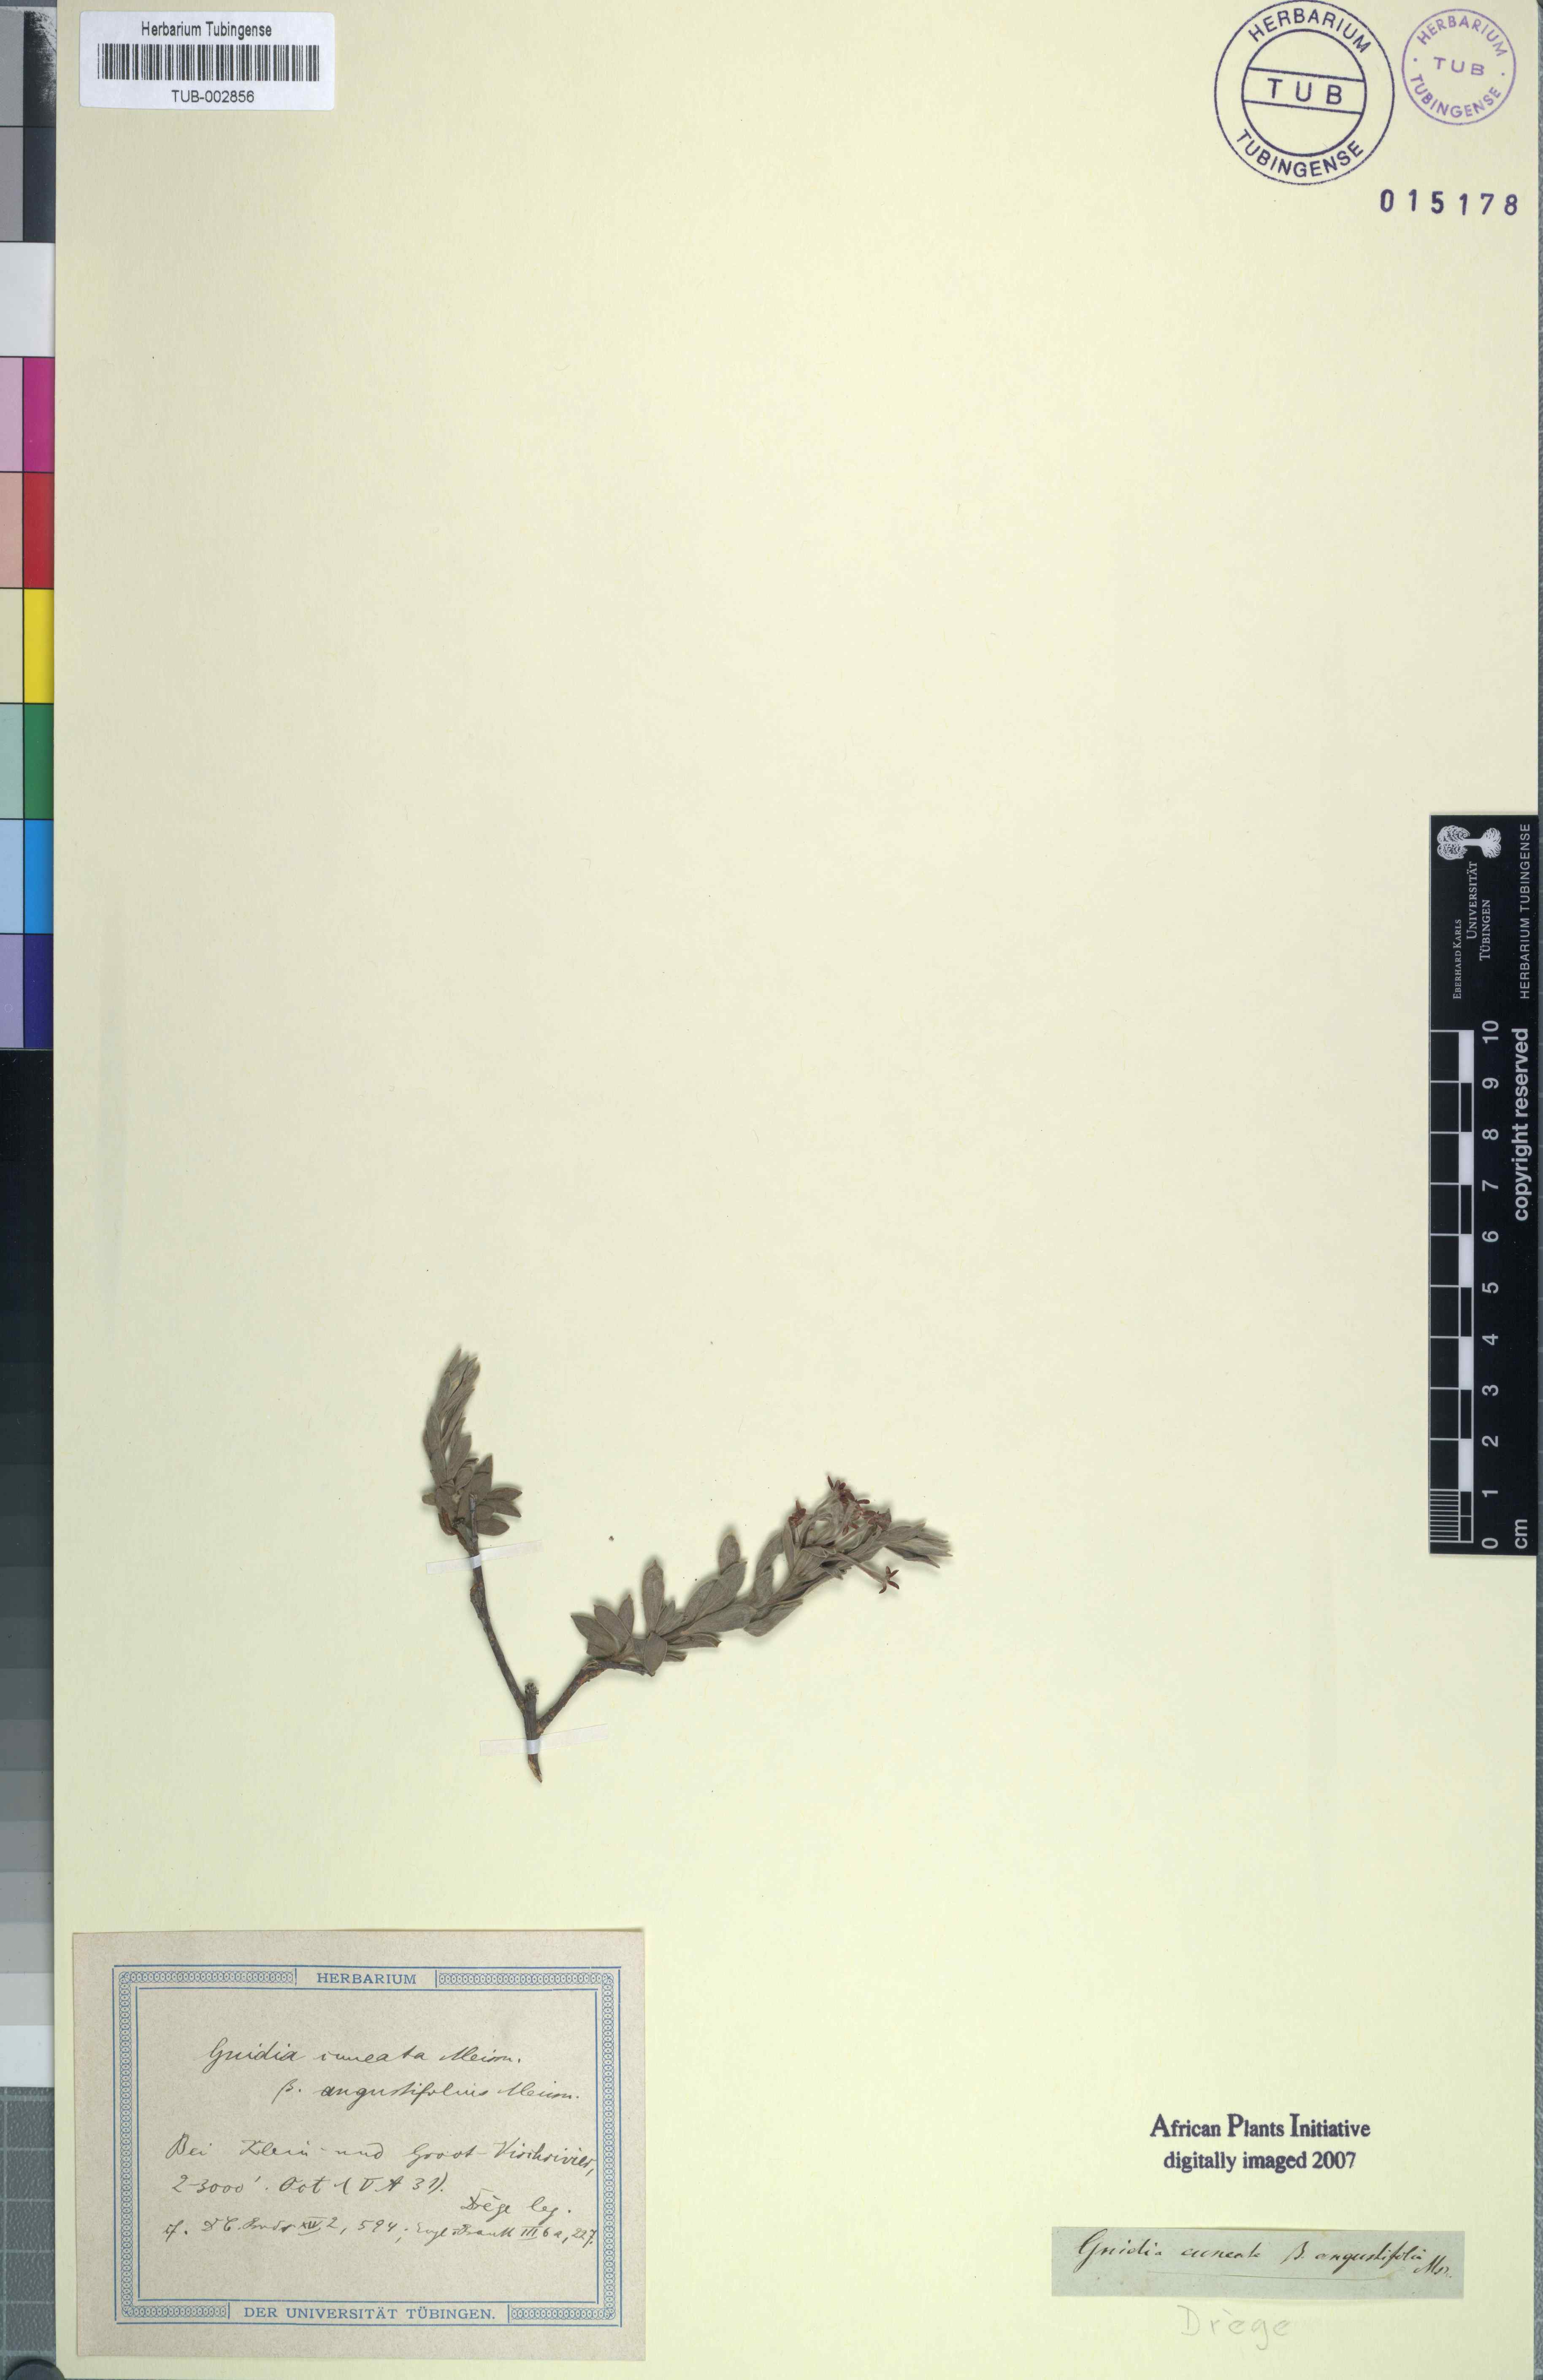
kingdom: Plantae
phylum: Tracheophyta
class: Magnoliopsida
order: Malvales
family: Thymelaeaceae
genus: Gnidia
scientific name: Gnidia cuneata
